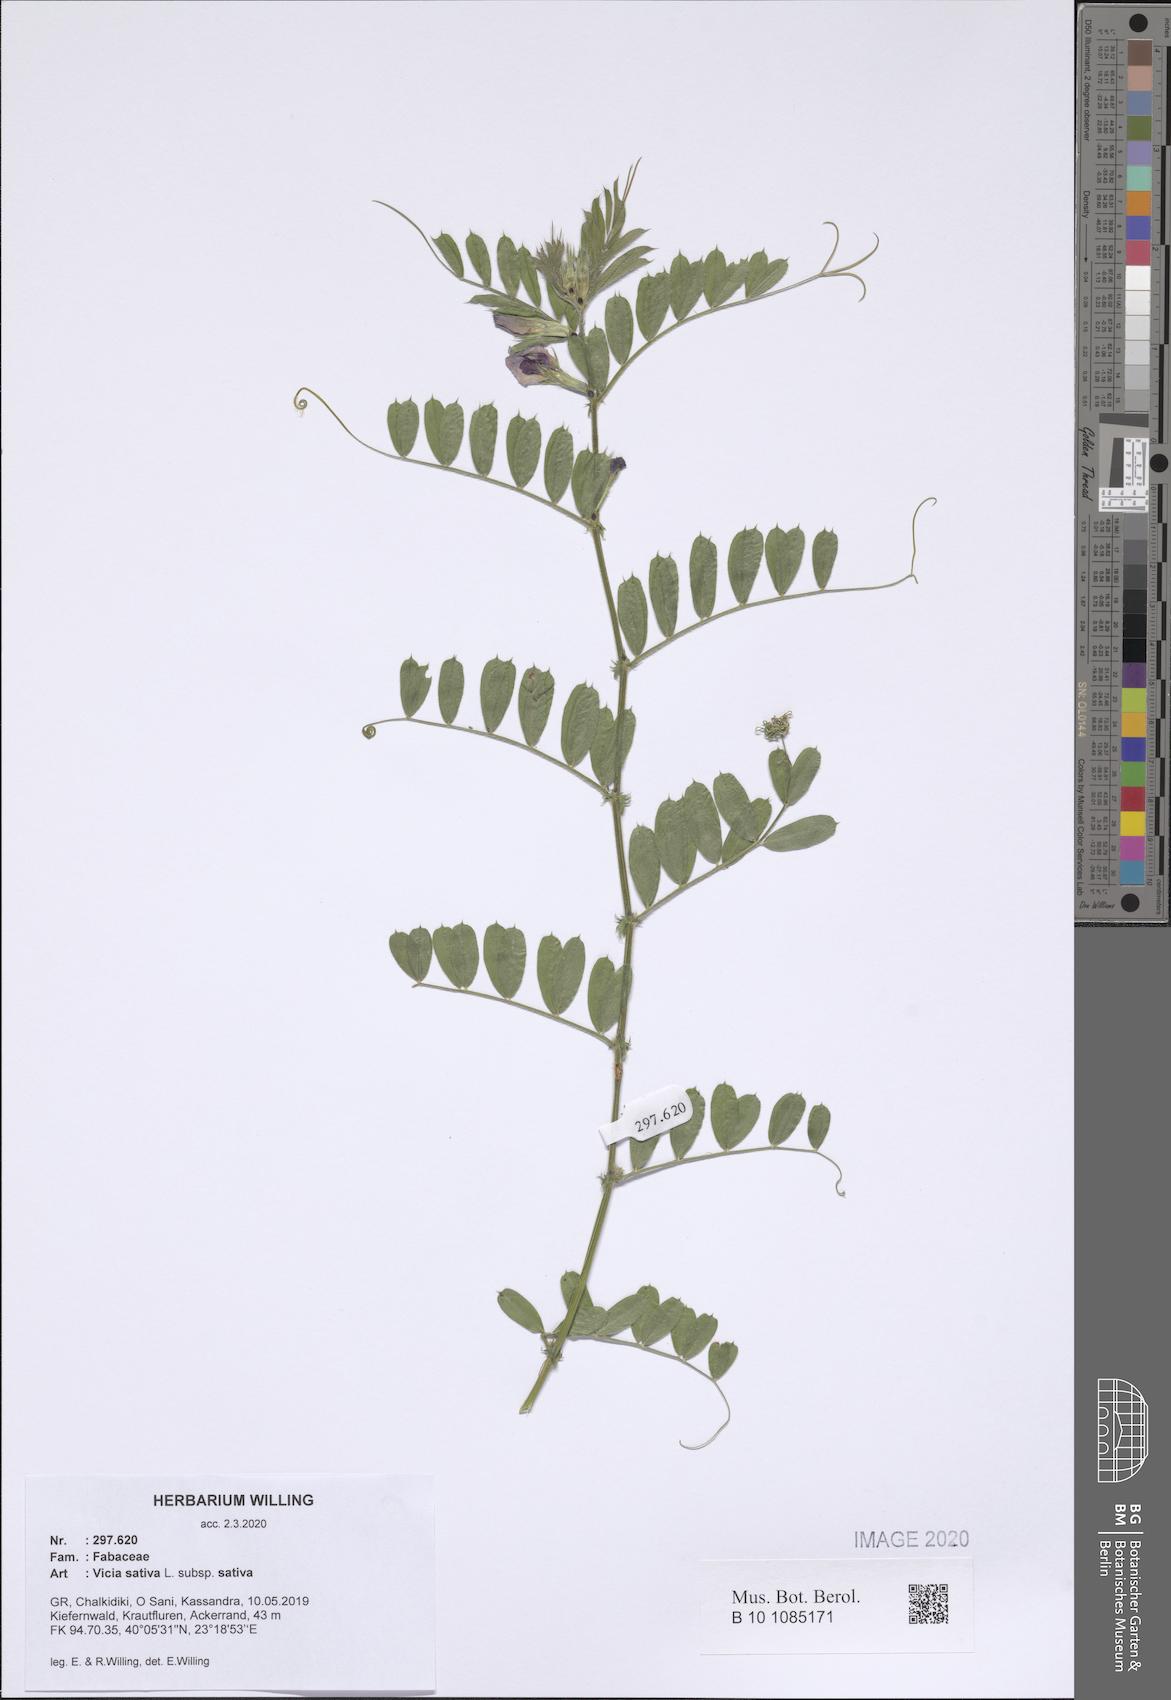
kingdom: Plantae
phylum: Tracheophyta
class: Magnoliopsida
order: Fabales
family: Fabaceae
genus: Vicia
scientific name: Vicia sativa
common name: Garden vetch
